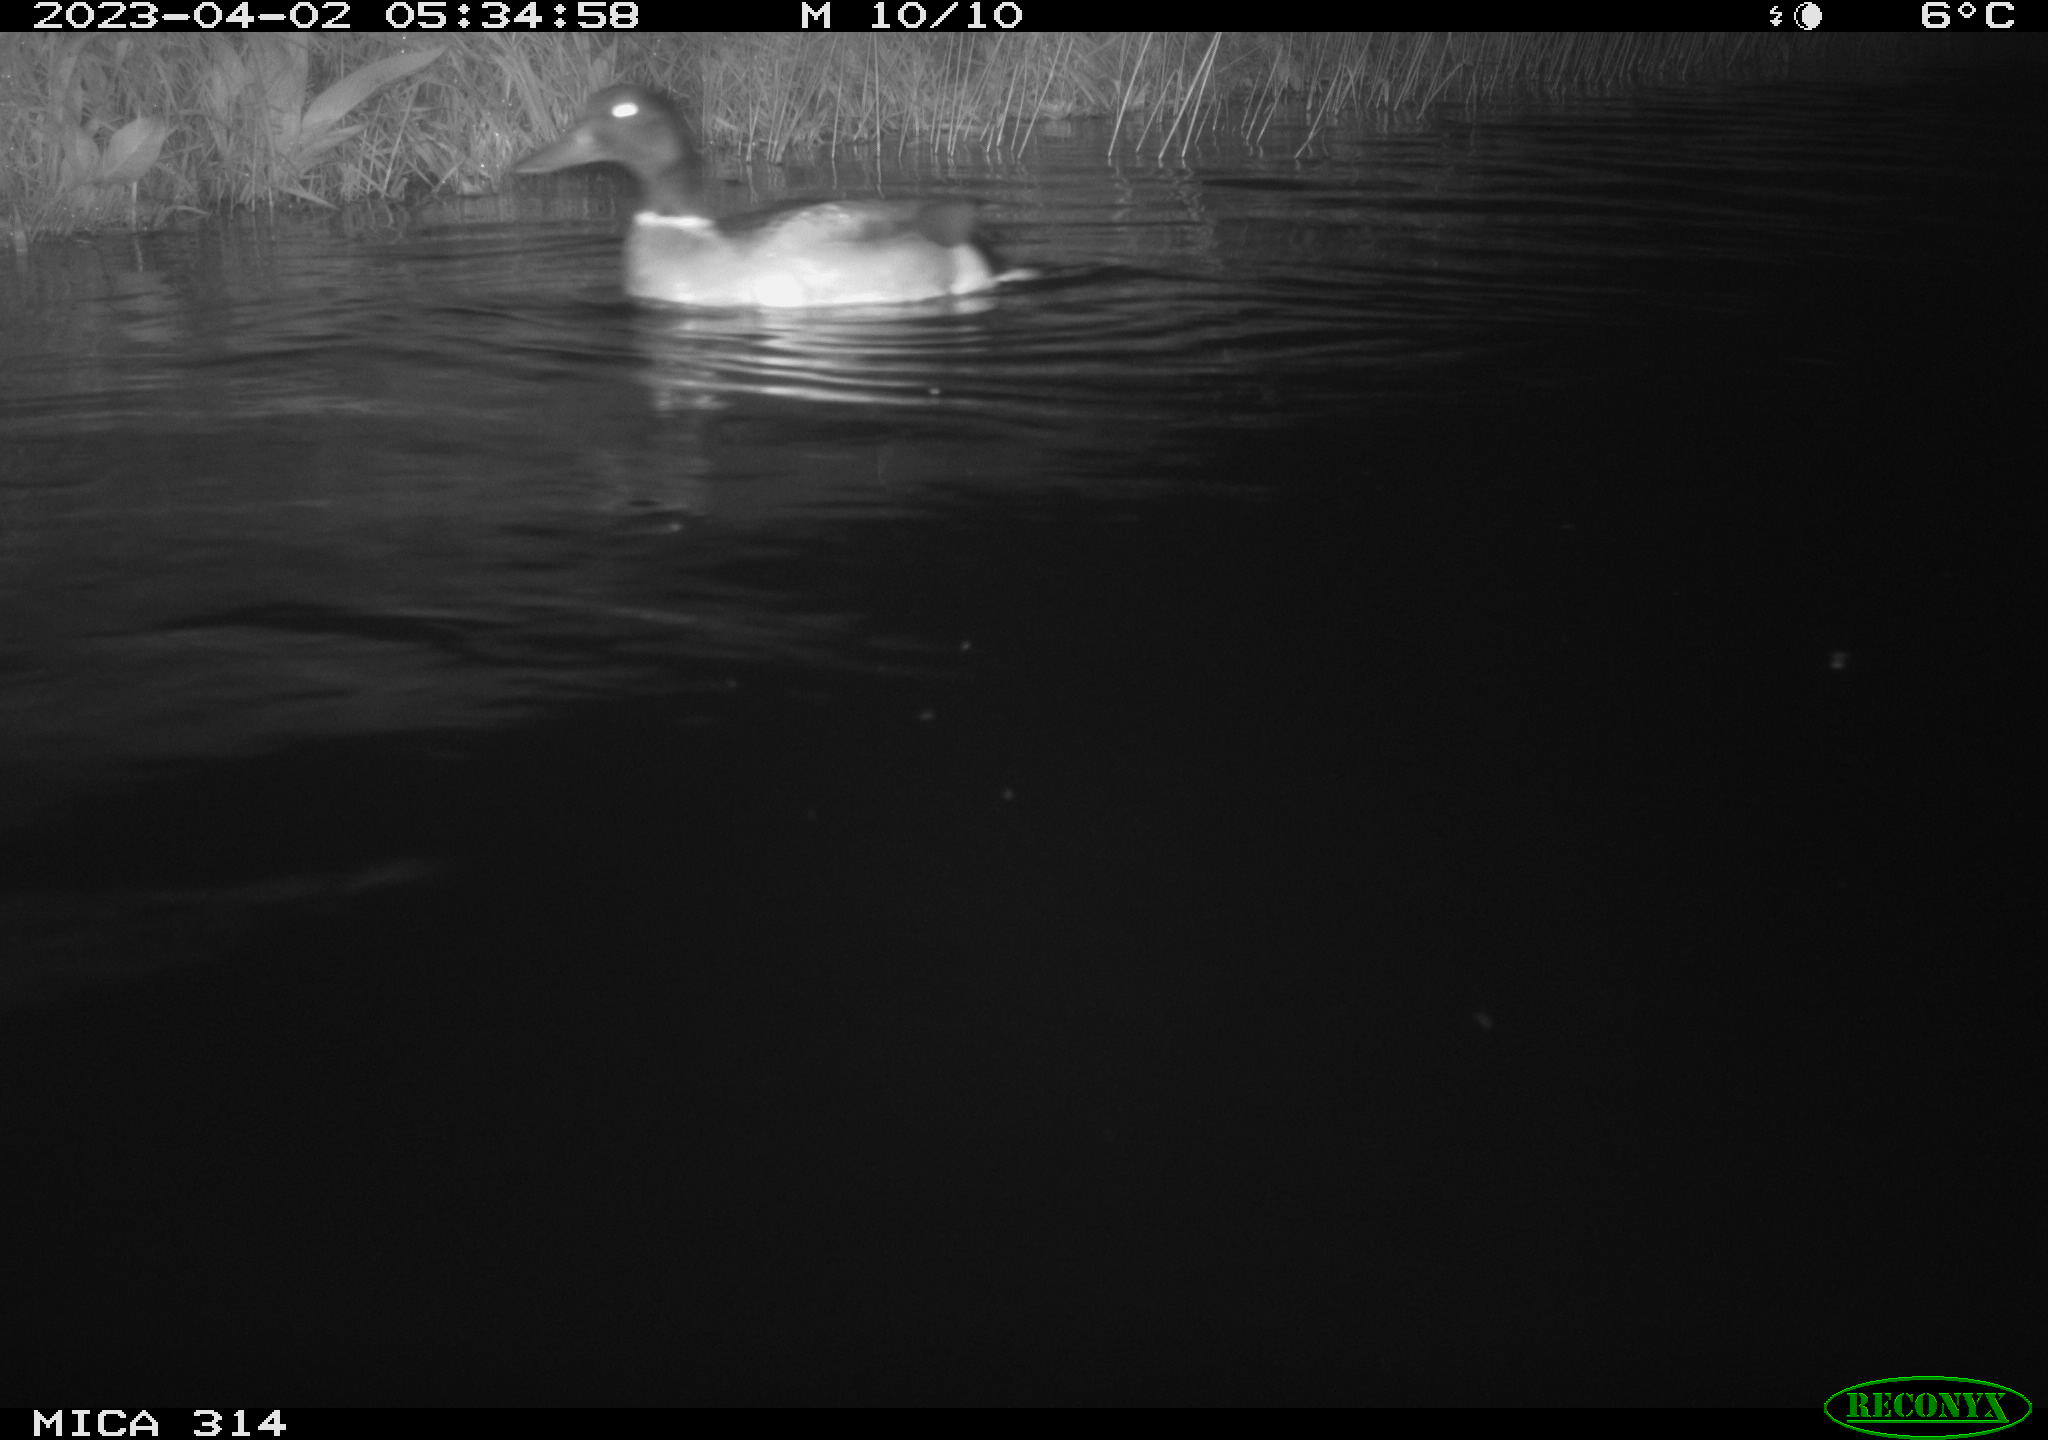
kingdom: Animalia
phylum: Chordata
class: Aves
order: Anseriformes
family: Anatidae
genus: Anas
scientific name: Anas
